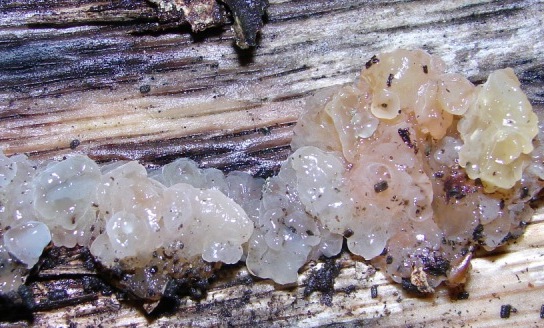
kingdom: Fungi
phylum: Basidiomycota
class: Agaricomycetes
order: Auriculariales
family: Hyaloriaceae
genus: Myxarium
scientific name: Myxarium nucleatum
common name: klar bævretop
